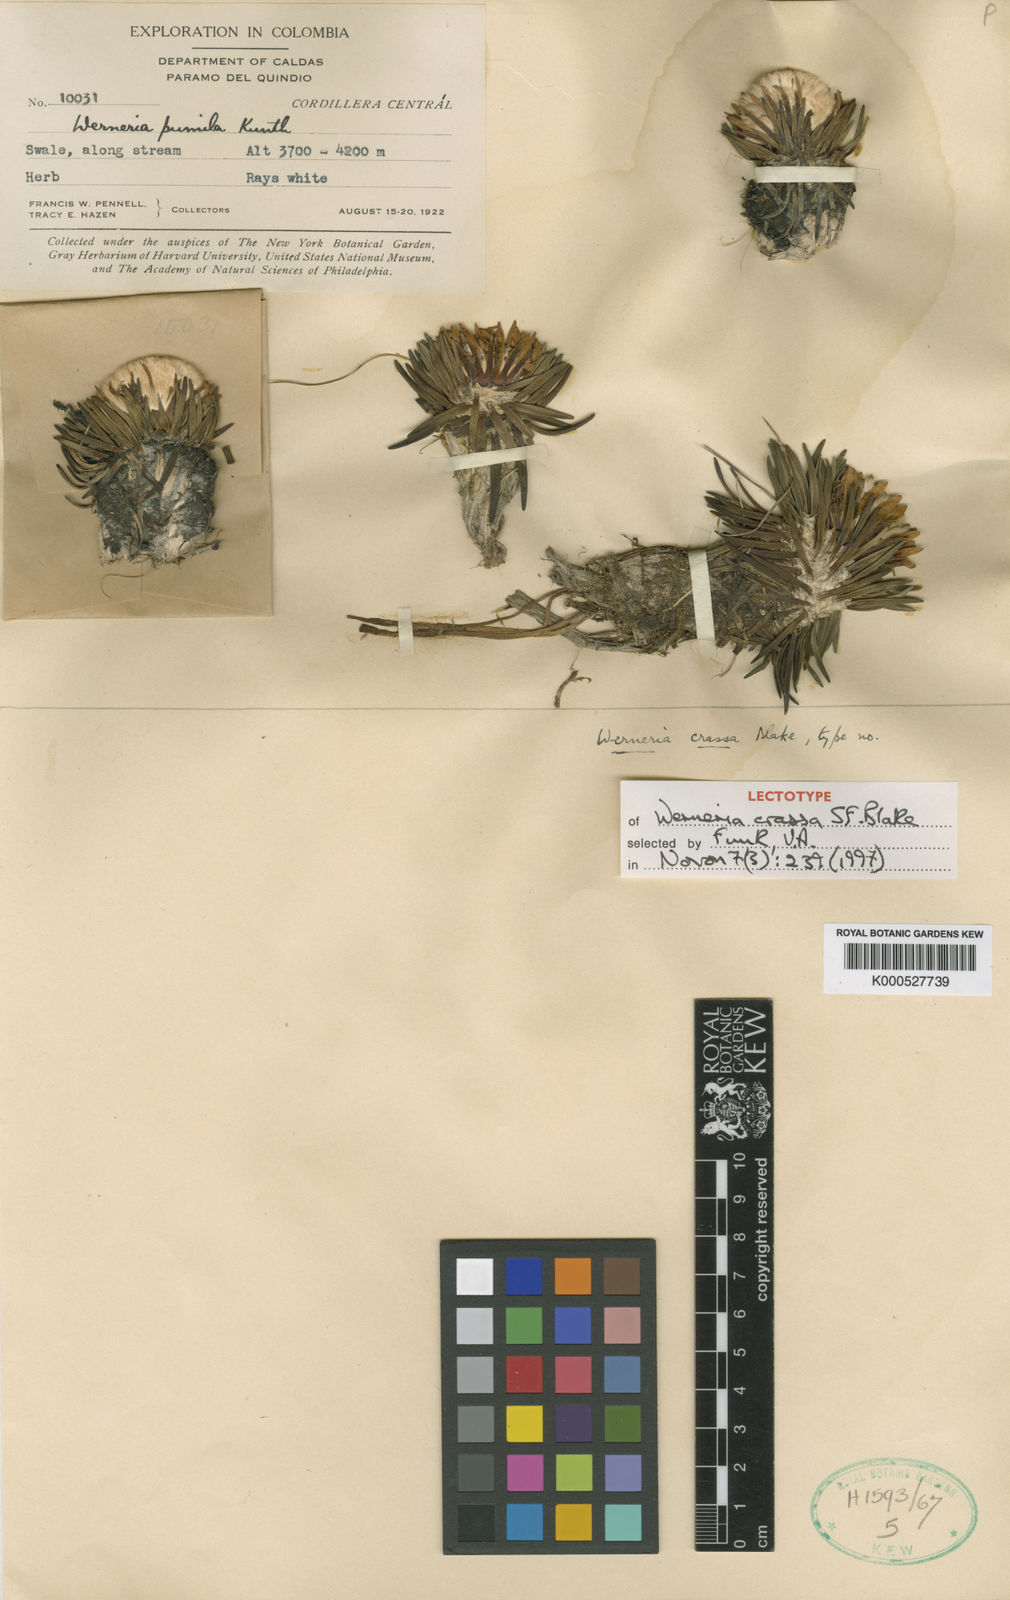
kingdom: Plantae
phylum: Tracheophyta
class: Magnoliopsida
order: Asterales
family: Asteraceae
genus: Werneria
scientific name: Werneria crassa
